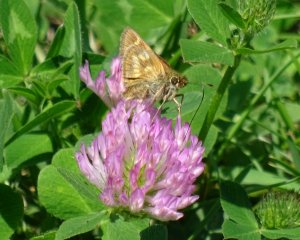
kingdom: Animalia
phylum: Arthropoda
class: Insecta
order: Lepidoptera
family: Hesperiidae
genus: Polites
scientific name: Polites
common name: Long Dash Skipper
